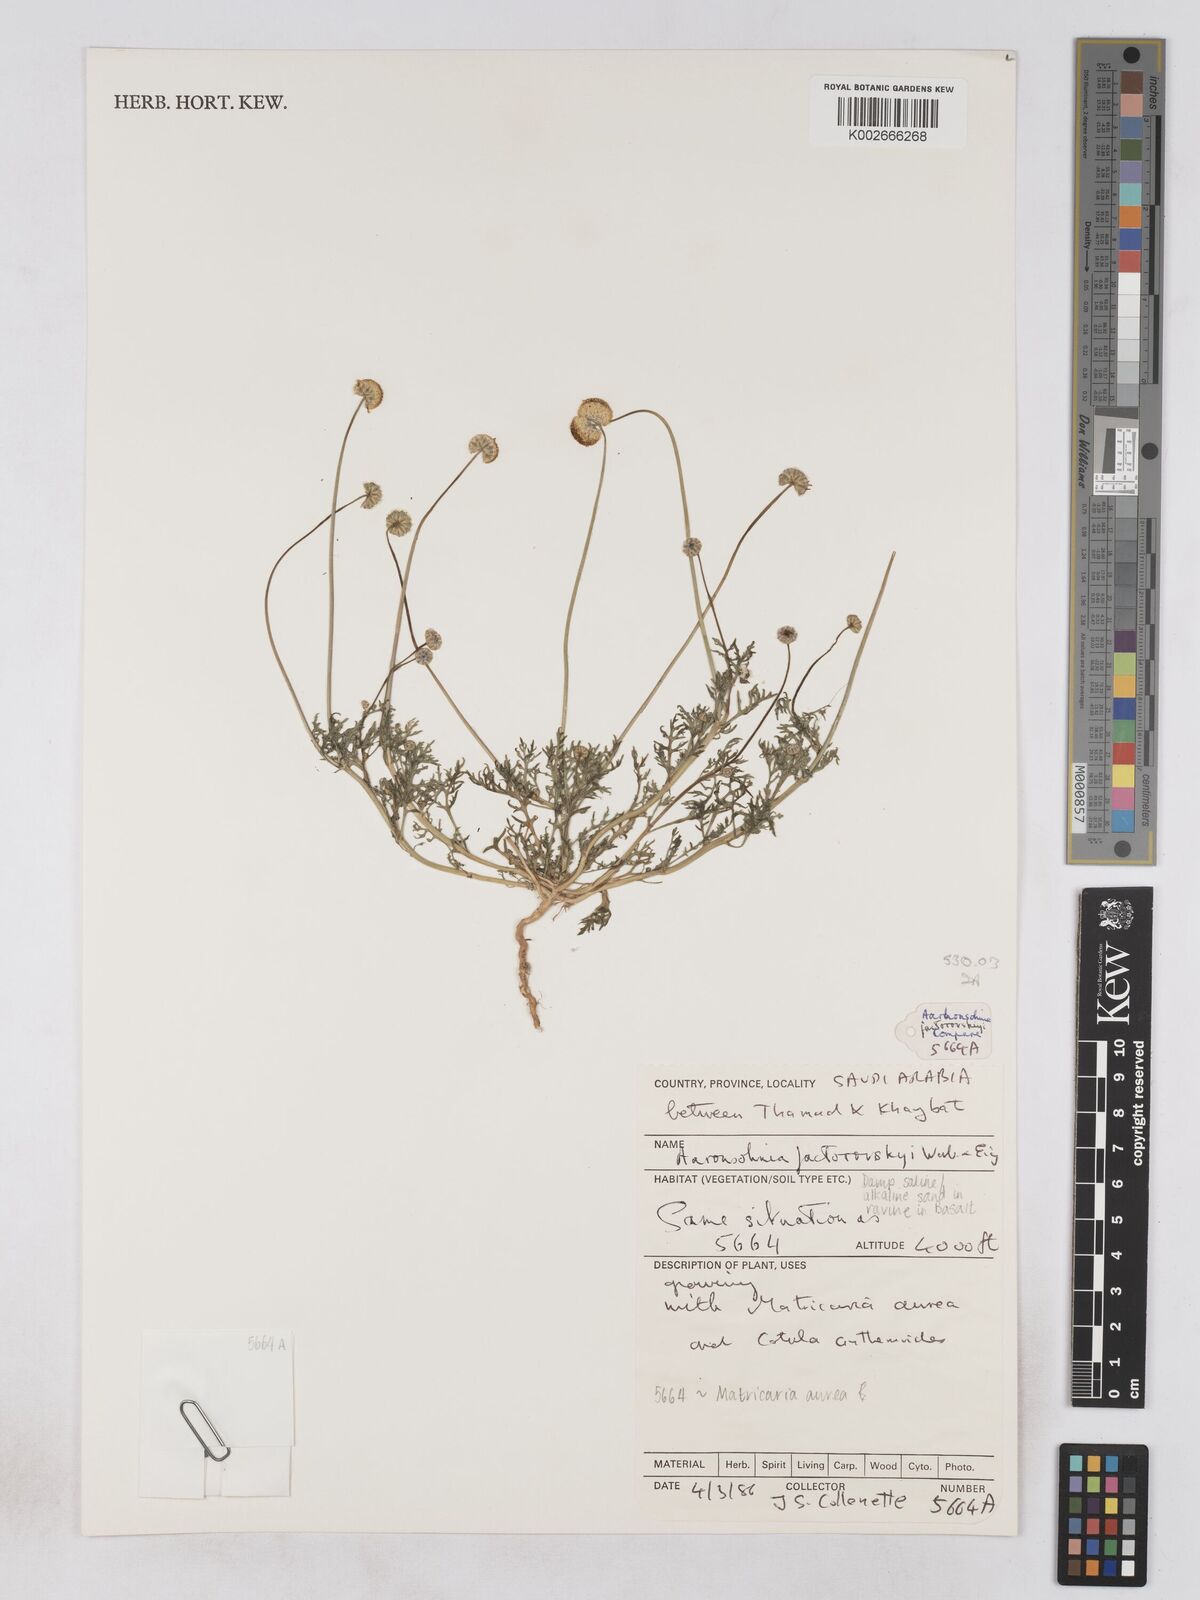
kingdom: Plantae
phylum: Tracheophyta
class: Magnoliopsida
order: Asterales
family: Asteraceae
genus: Otoglyphis
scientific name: Otoglyphis factorovskyi
